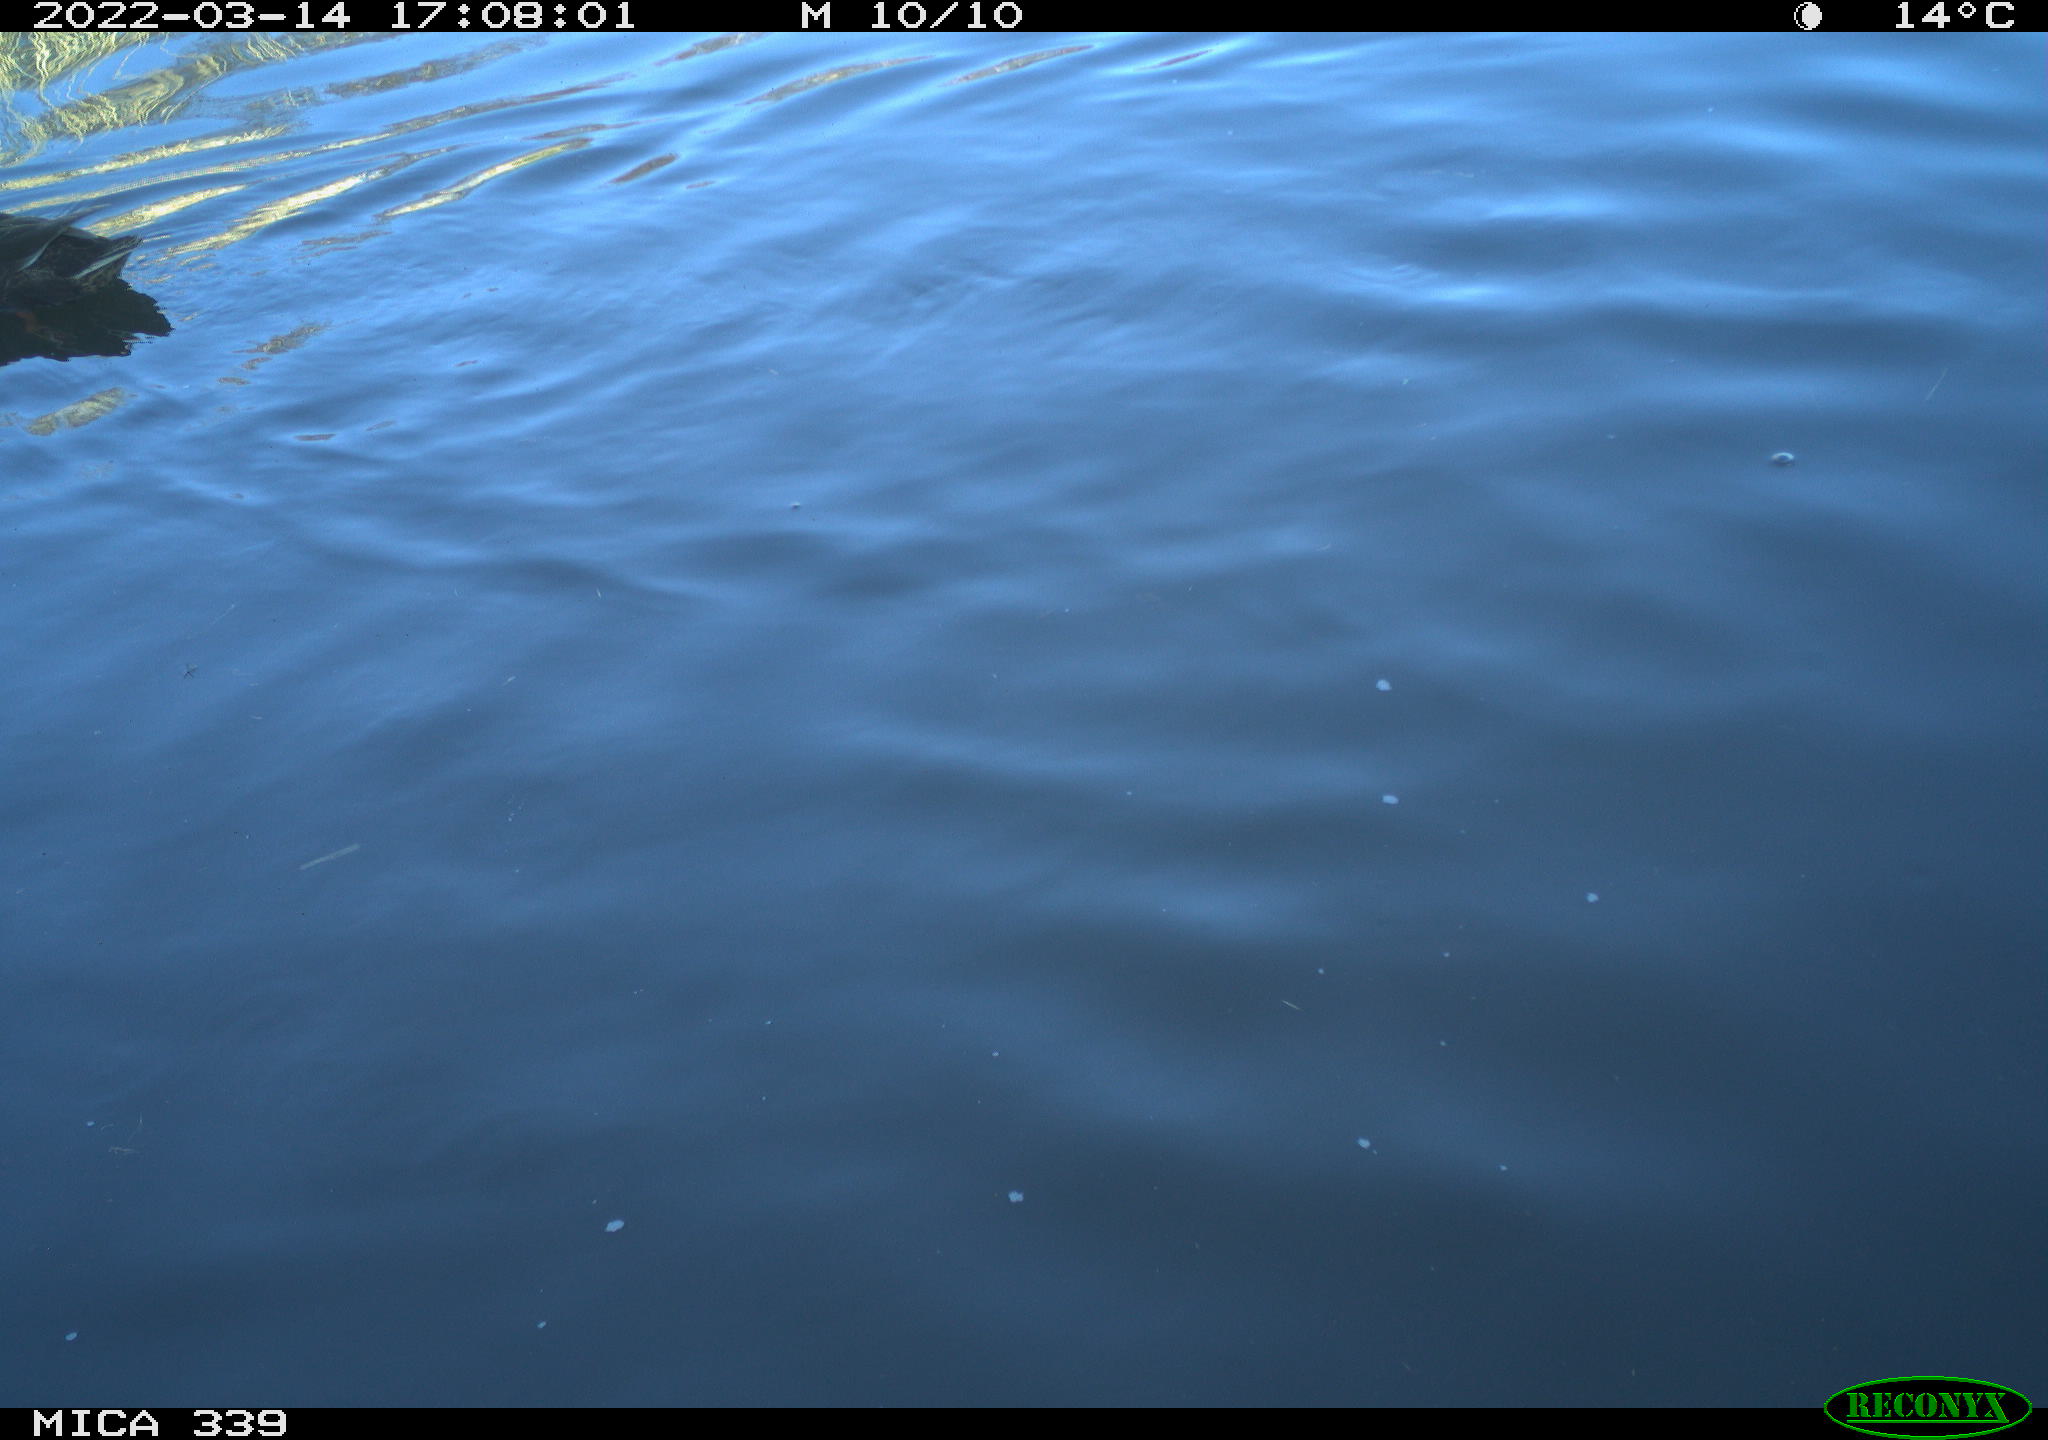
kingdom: Animalia
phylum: Chordata
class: Aves
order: Anseriformes
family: Anatidae
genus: Anas
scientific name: Anas platyrhynchos
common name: Mallard
